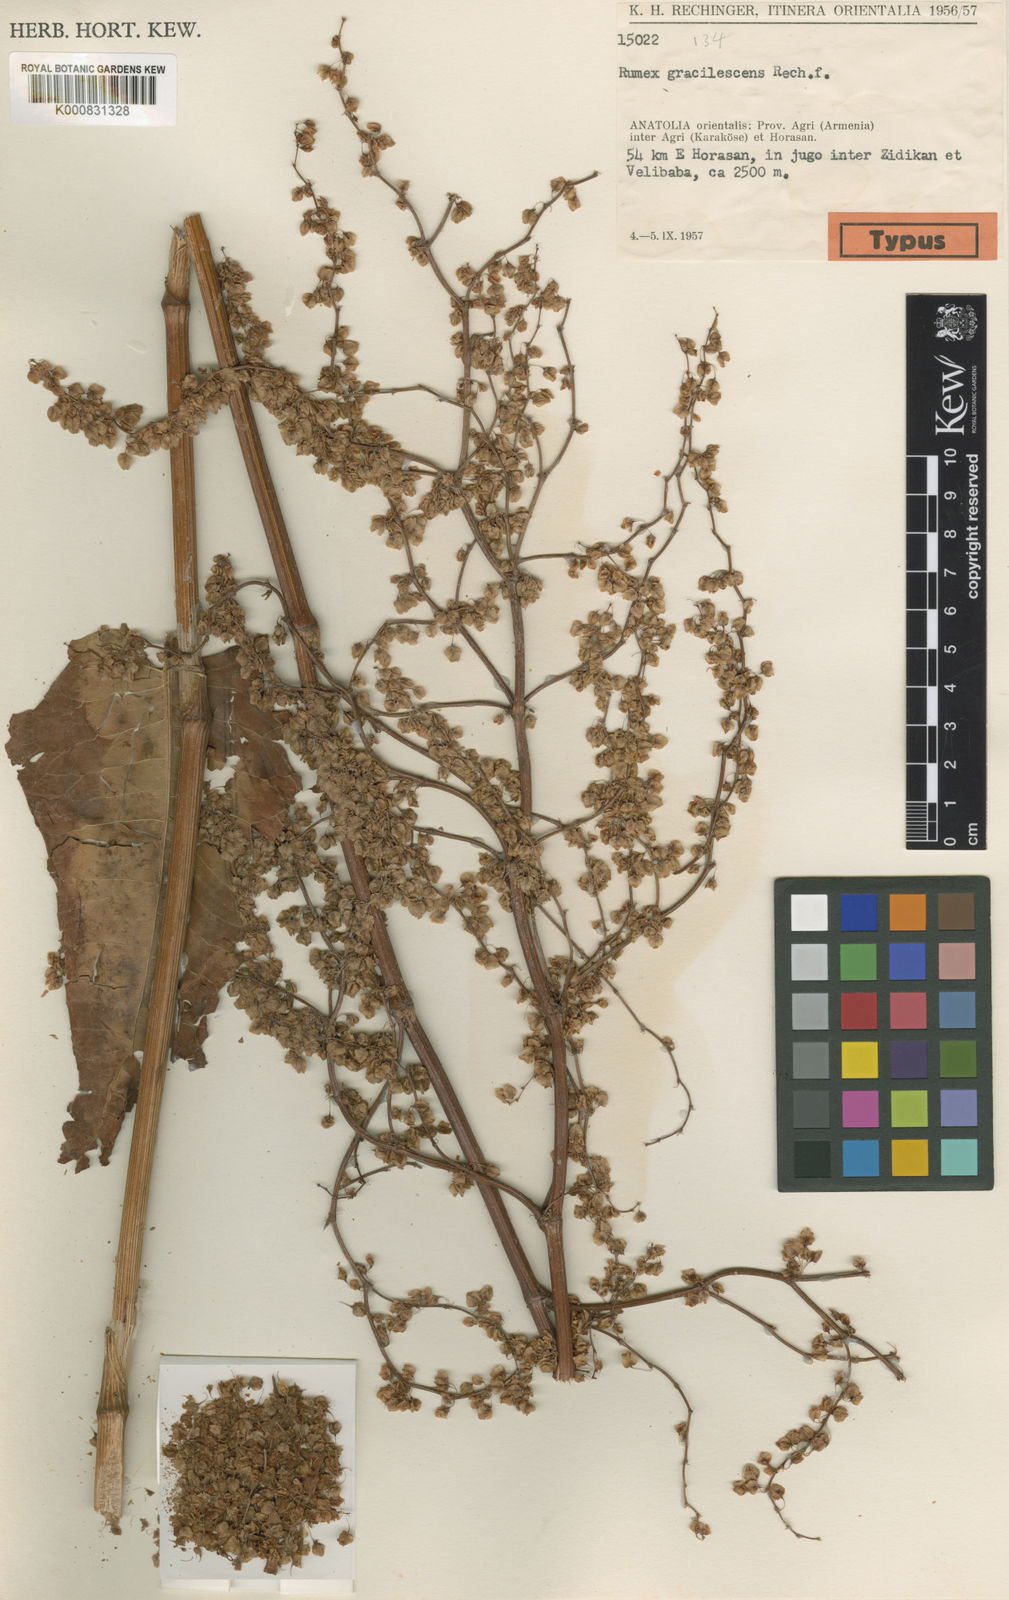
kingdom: Plantae
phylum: Tracheophyta
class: Magnoliopsida
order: Caryophyllales
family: Polygonaceae
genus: Rumex
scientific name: Rumex gracilescens
